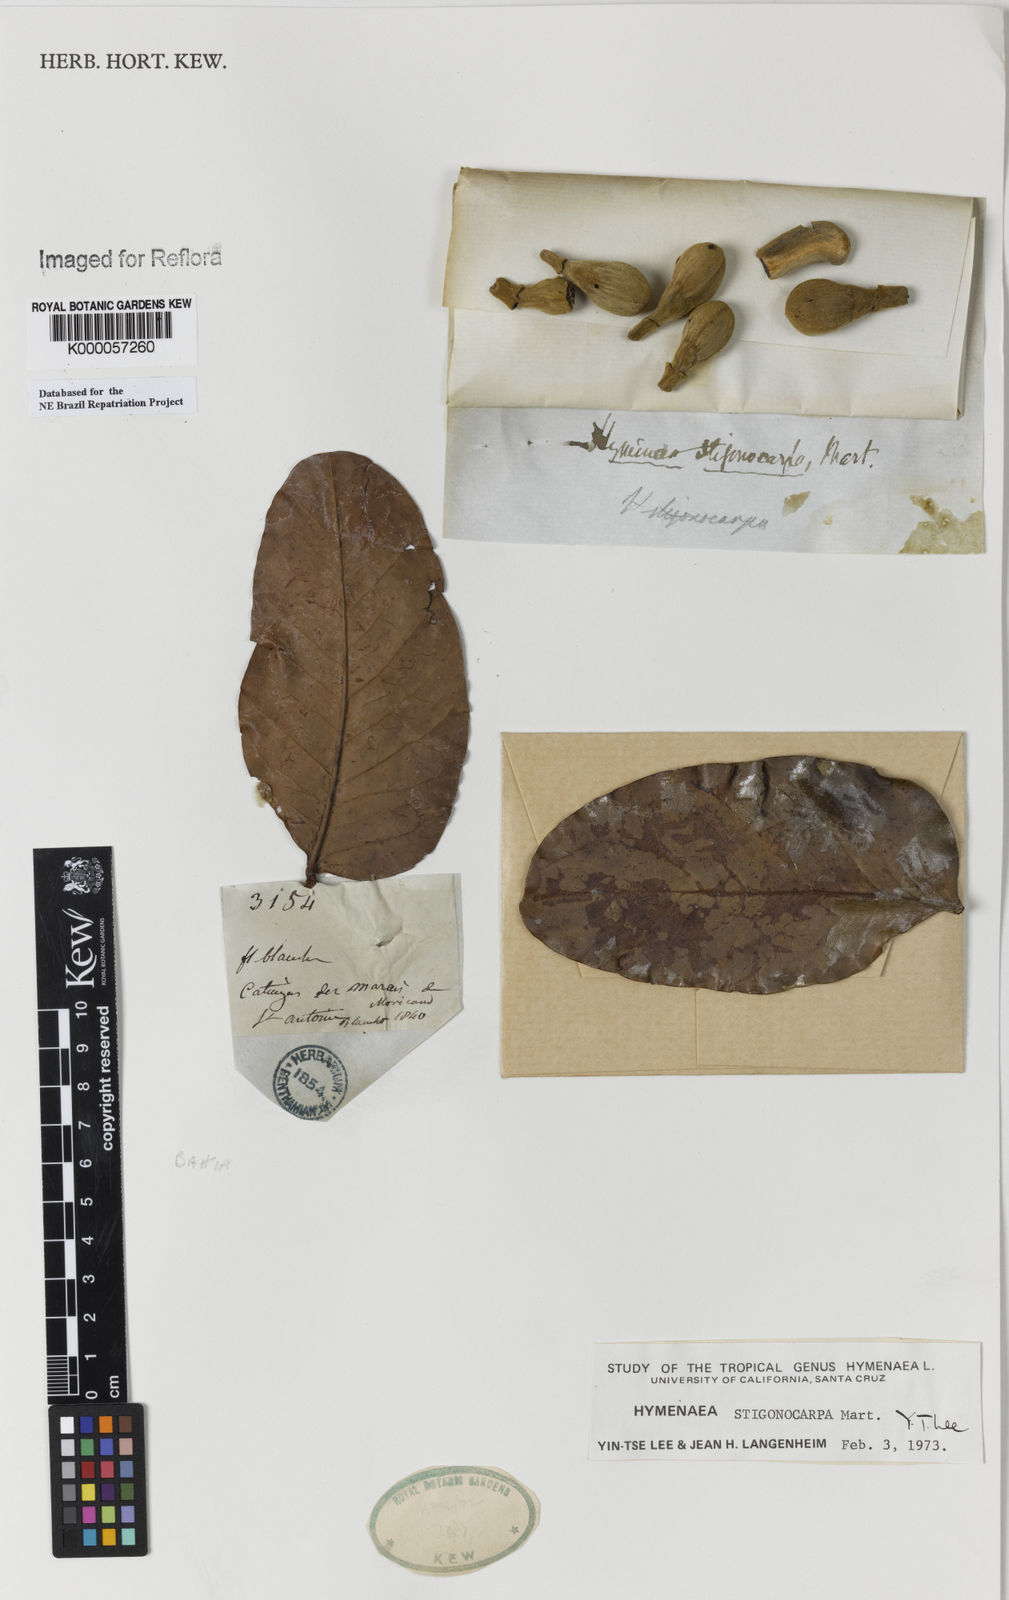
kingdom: Plantae
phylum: Tracheophyta
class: Magnoliopsida
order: Fabales
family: Fabaceae
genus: Hymenaea
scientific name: Hymenaea stigonocarpa
